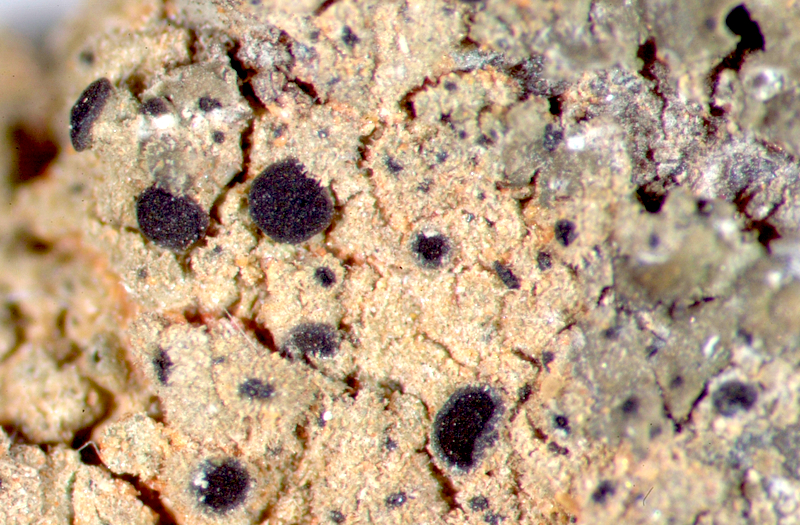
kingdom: Fungi
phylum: Ascomycota
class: Lecanoromycetes
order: Teloschistales
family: Teloschistaceae
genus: Cerothallia
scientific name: Cerothallia luteoalba
